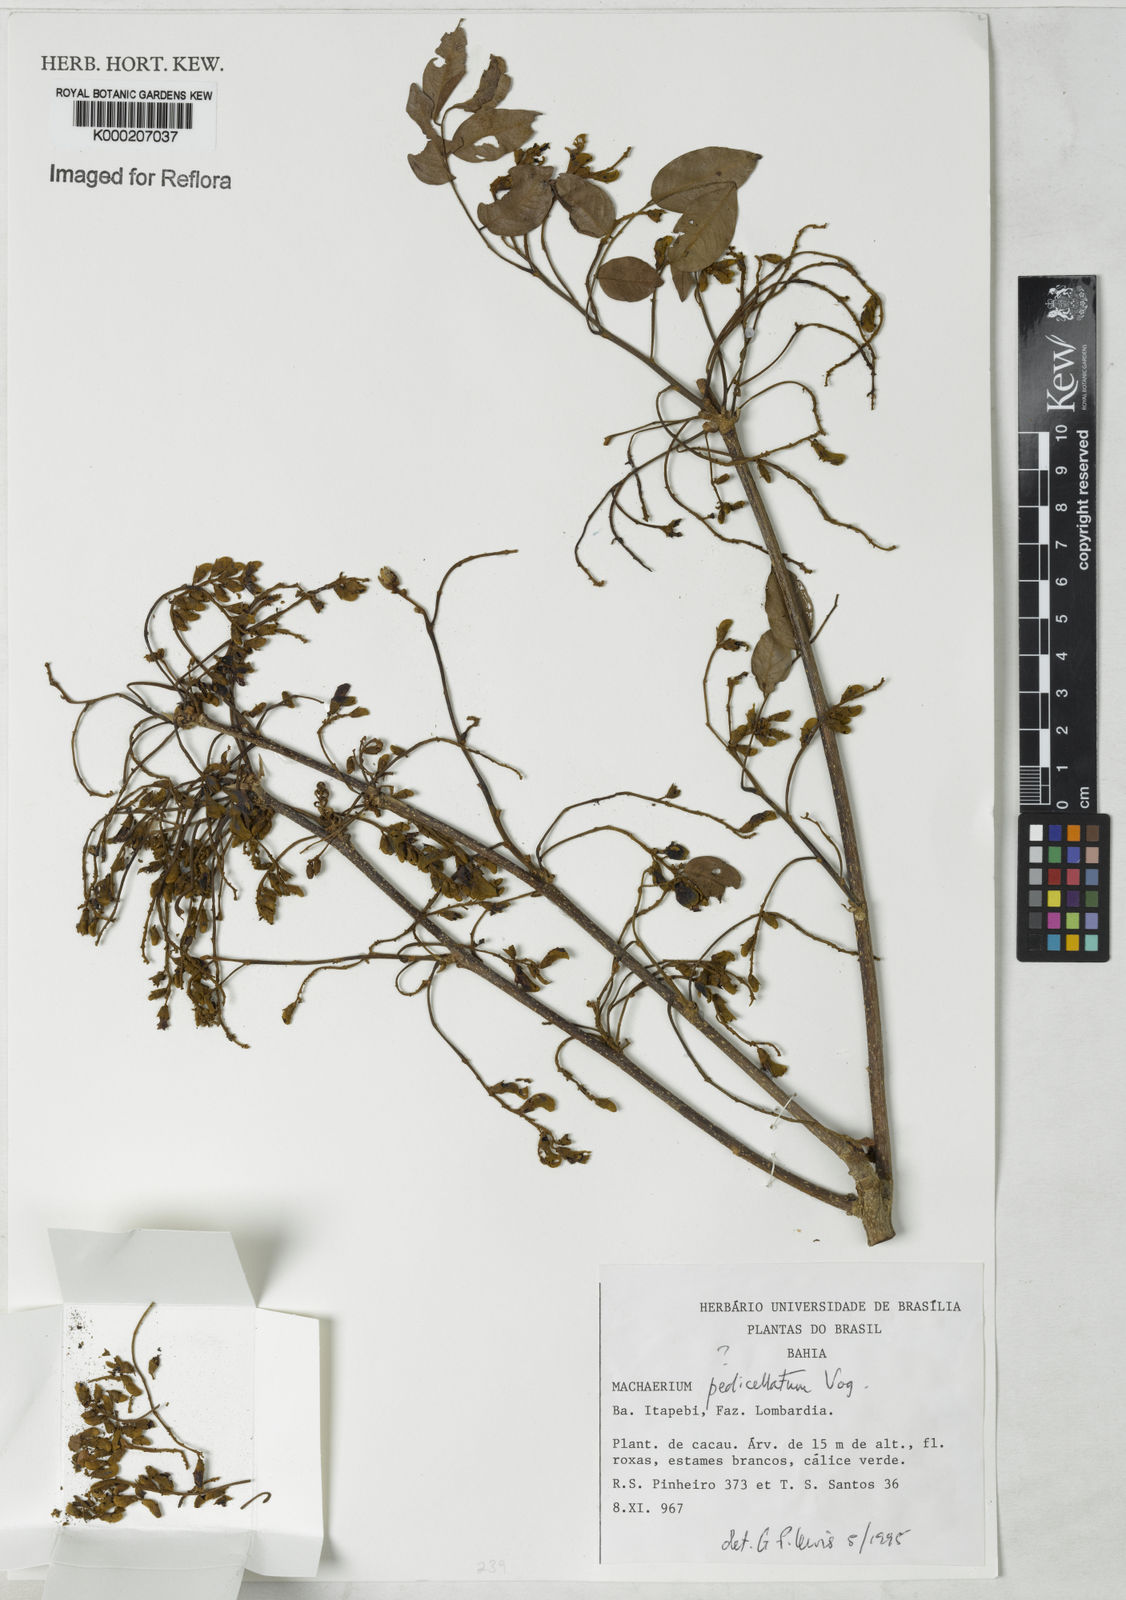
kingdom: Plantae
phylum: Tracheophyta
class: Magnoliopsida
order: Fabales
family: Fabaceae
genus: Machaerium
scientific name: Machaerium pedicellatum
